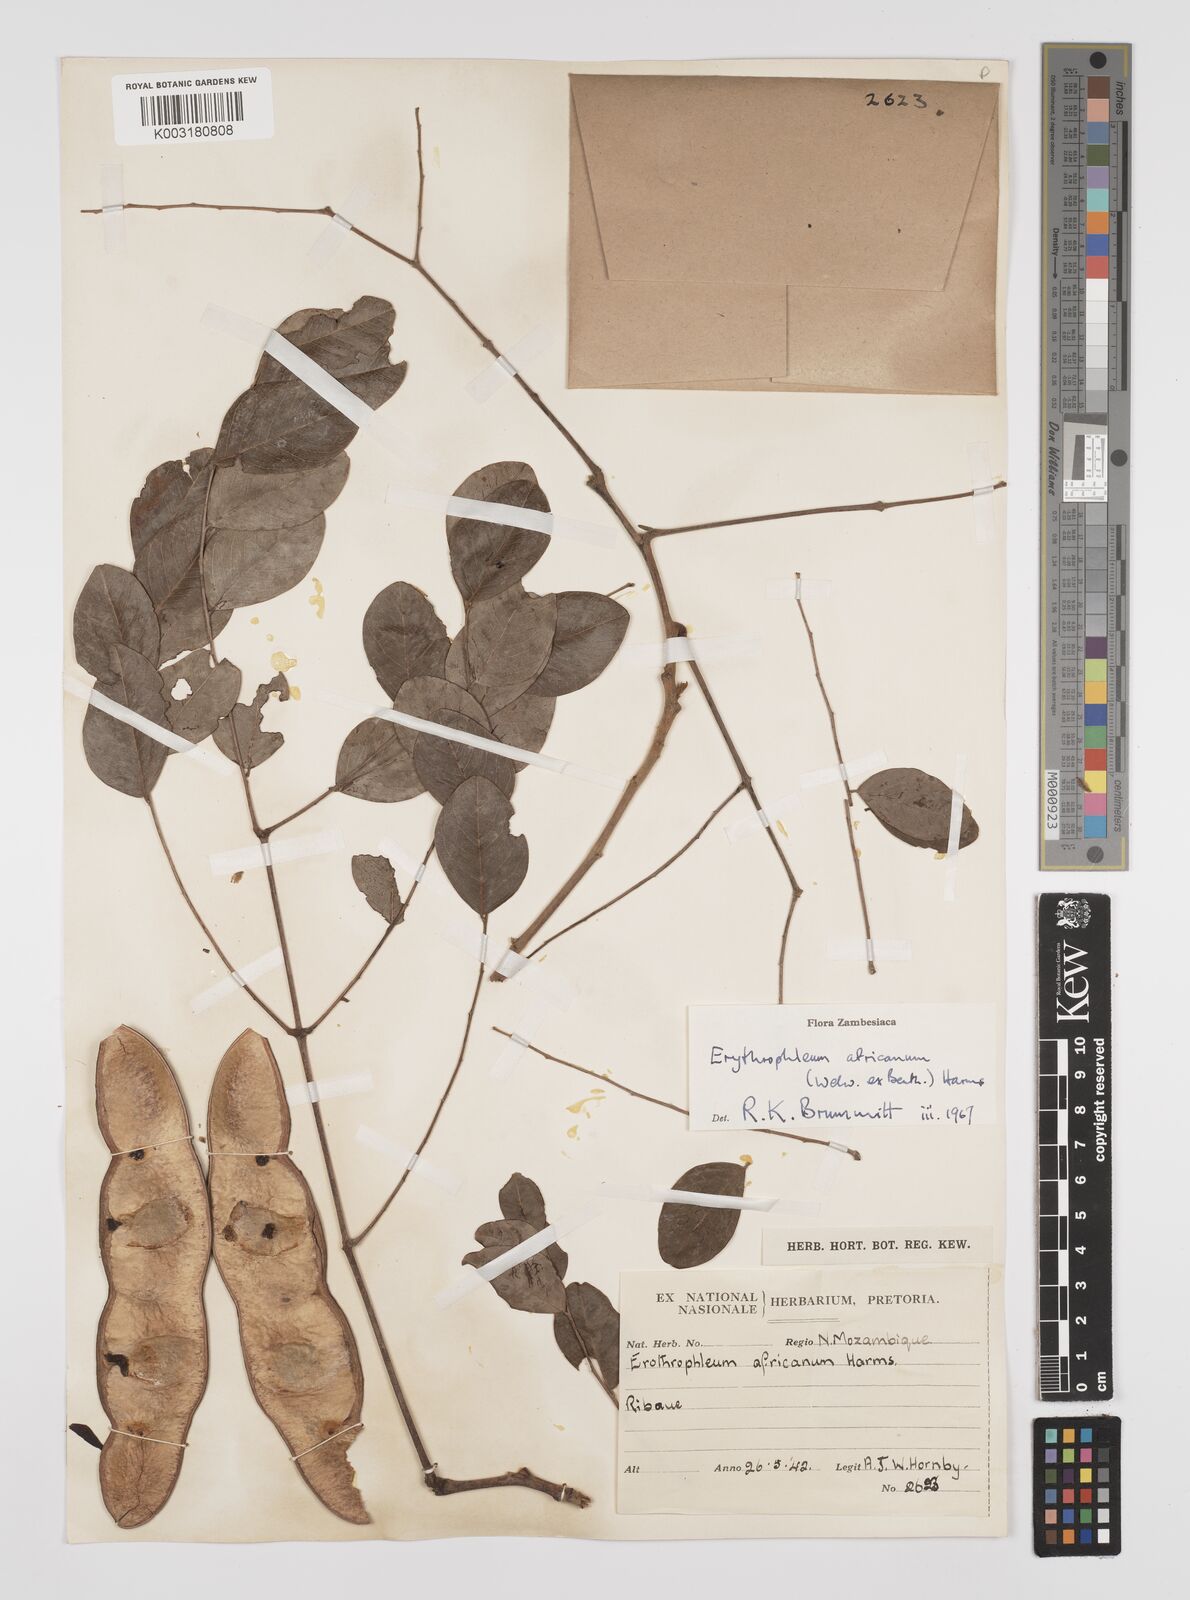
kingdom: Plantae
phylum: Tracheophyta
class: Magnoliopsida
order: Fabales
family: Fabaceae
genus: Peltophorum
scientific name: Peltophorum africanum
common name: African black wattle
